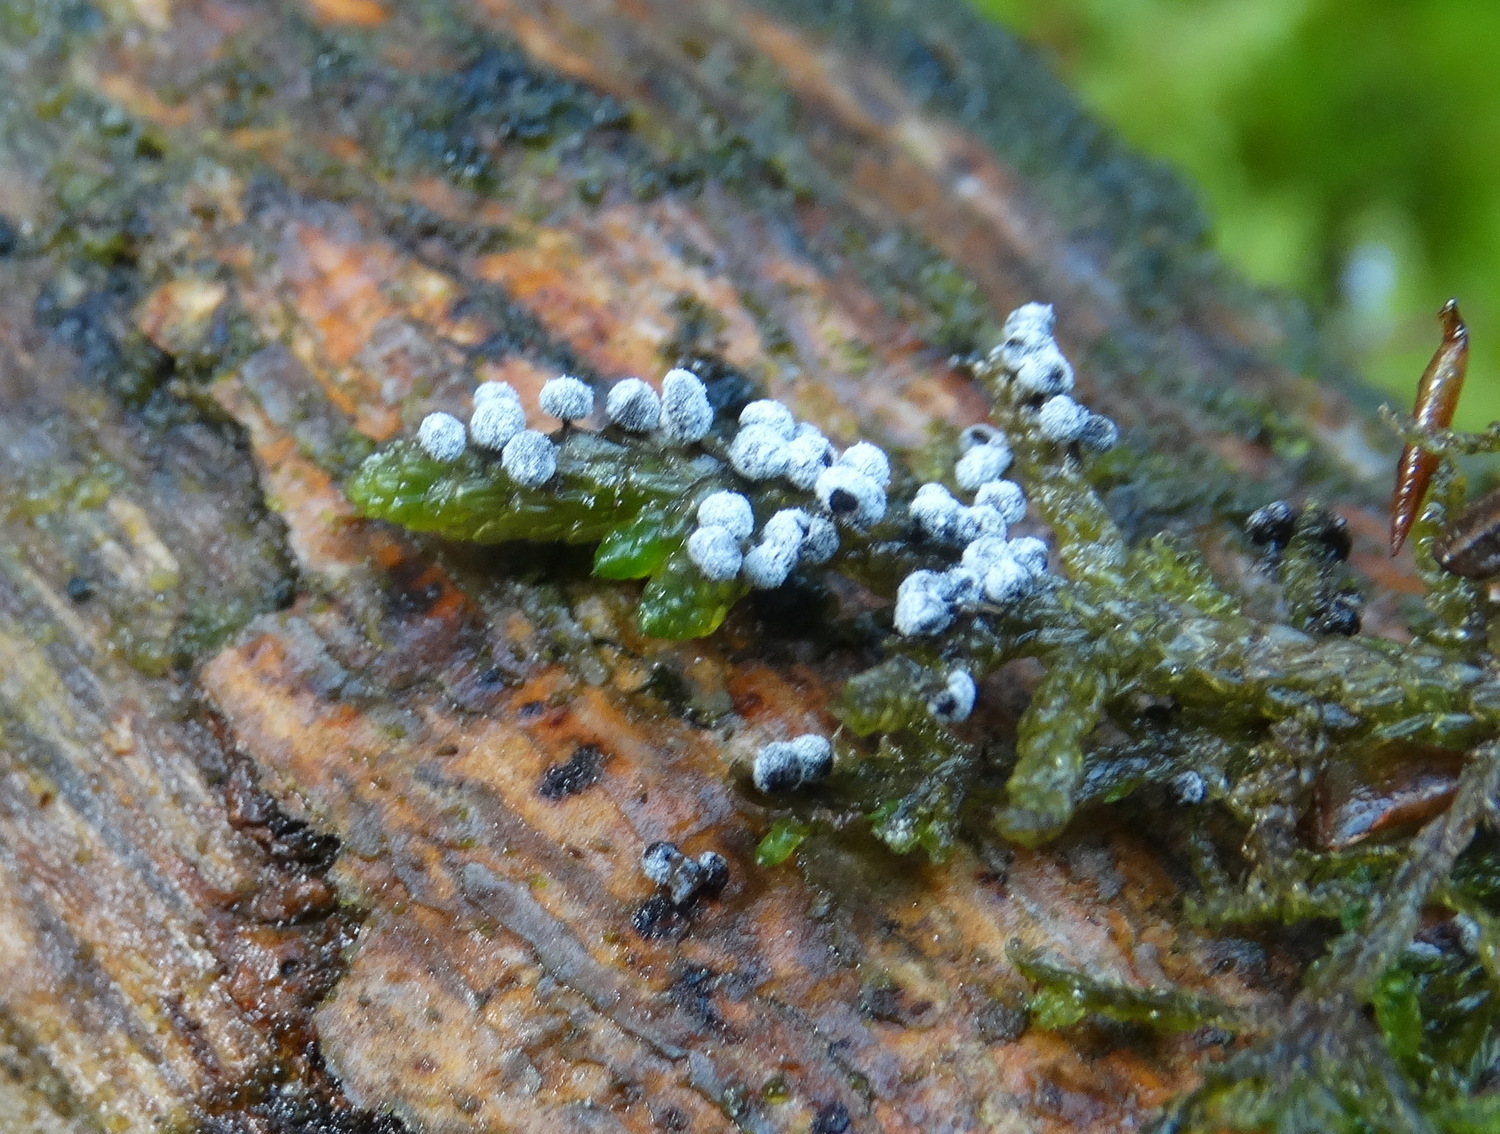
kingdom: Protozoa
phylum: Mycetozoa
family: Didymiidae
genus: Didymium
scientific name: Didymium
